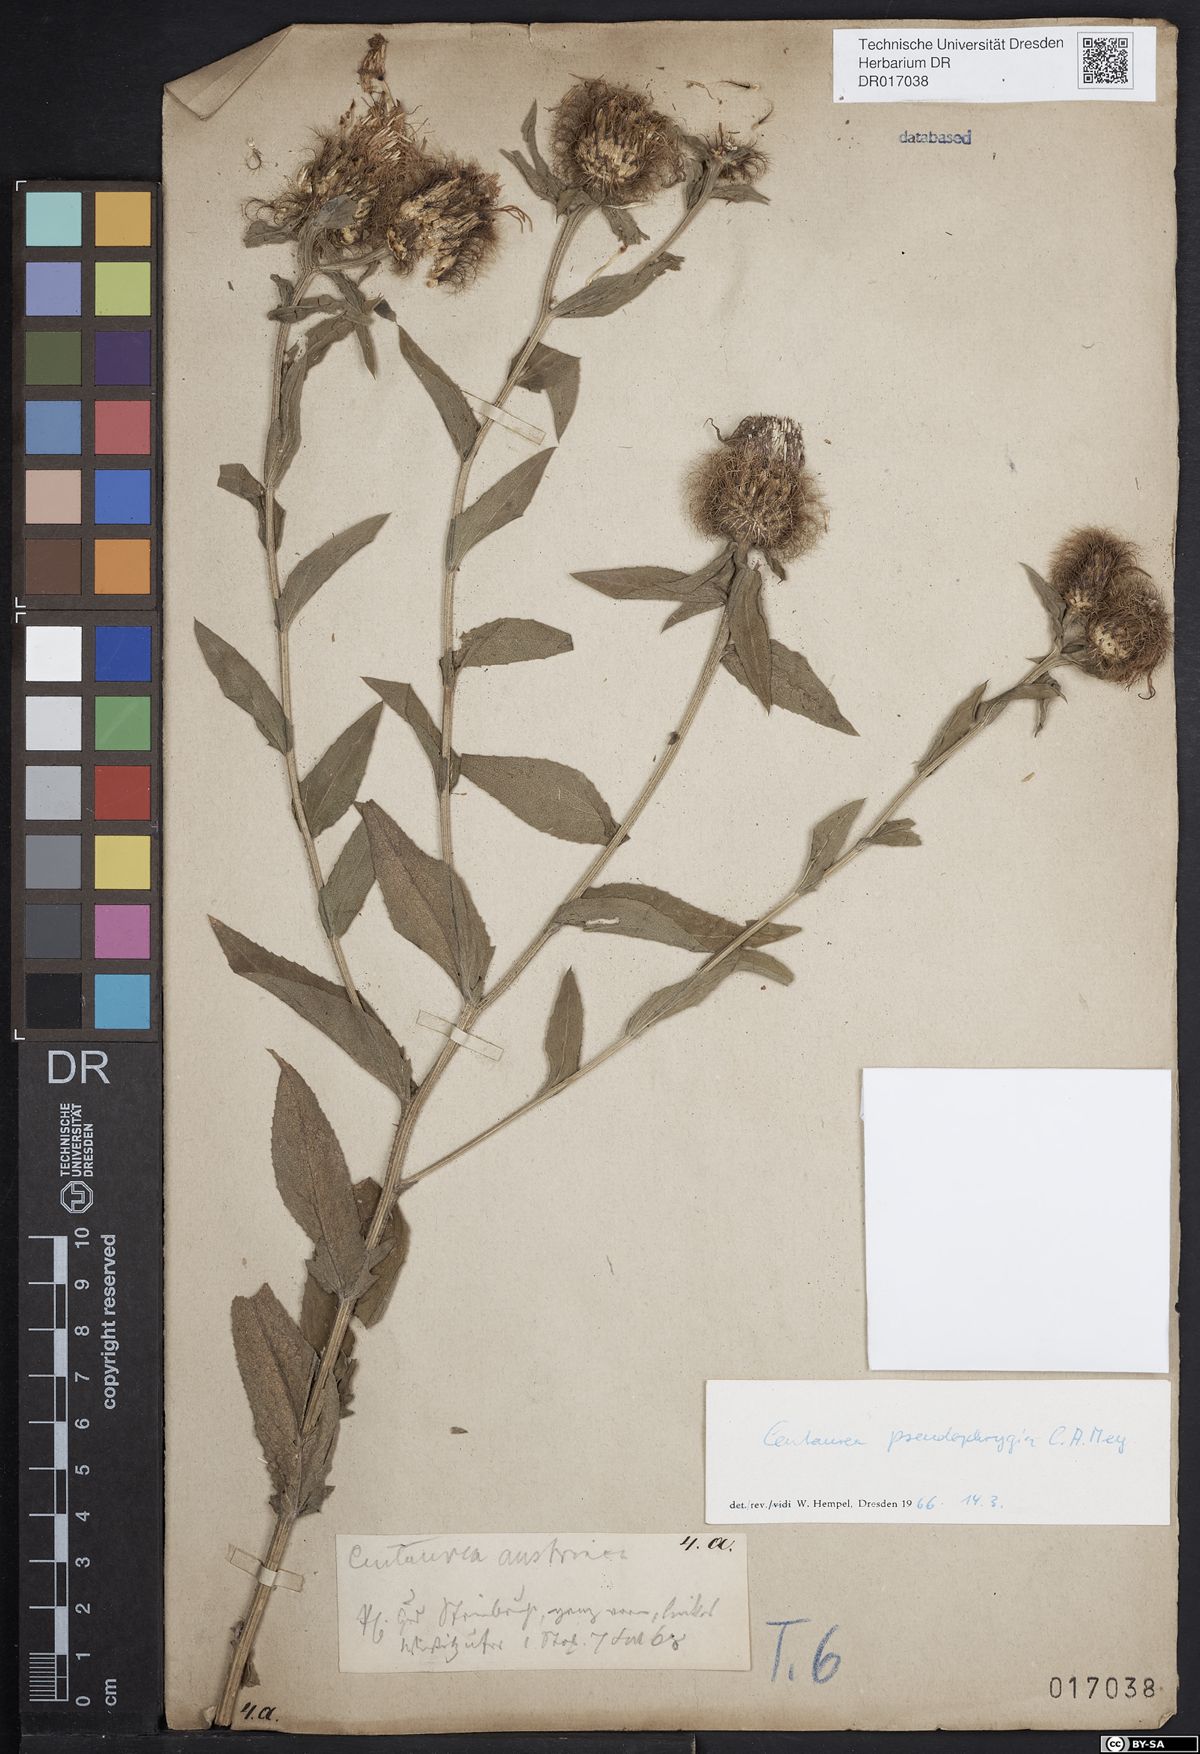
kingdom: Plantae
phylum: Tracheophyta
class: Magnoliopsida
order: Asterales
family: Asteraceae
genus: Centaurea
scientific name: Centaurea pseudophrygia
